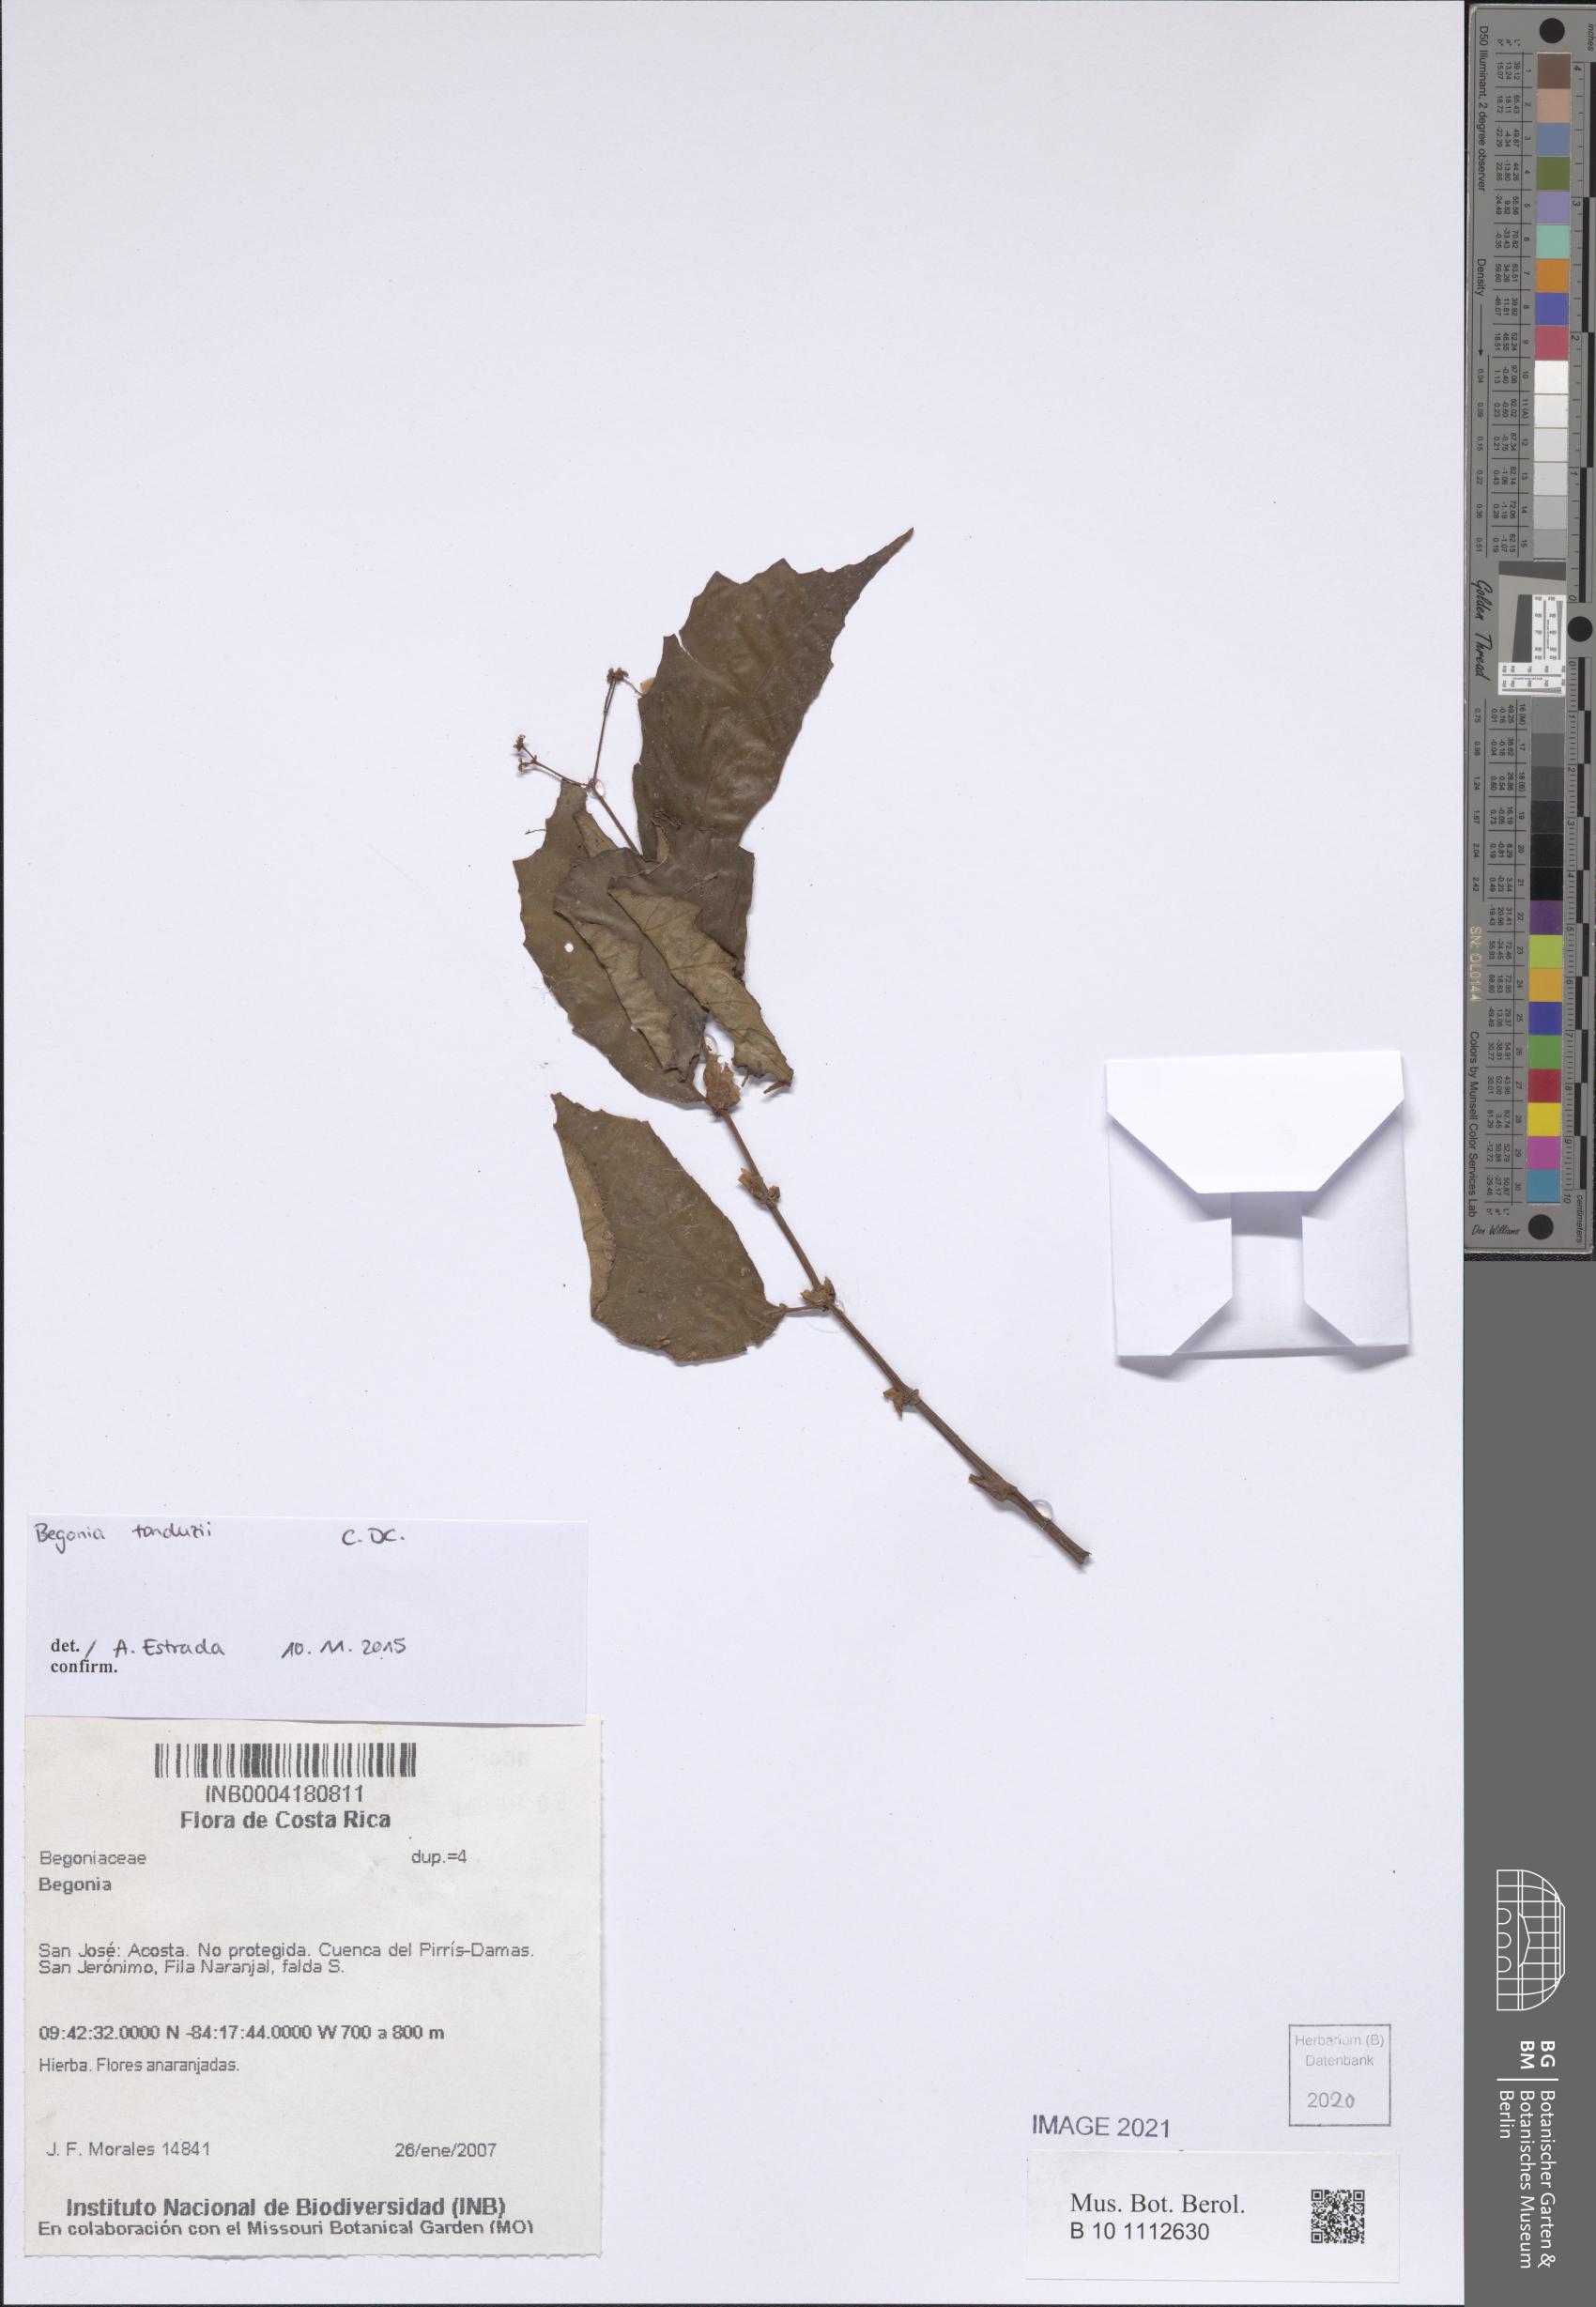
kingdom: Plantae
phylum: Tracheophyta
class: Magnoliopsida
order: Cucurbitales
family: Begoniaceae
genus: Begonia
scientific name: Begonia
